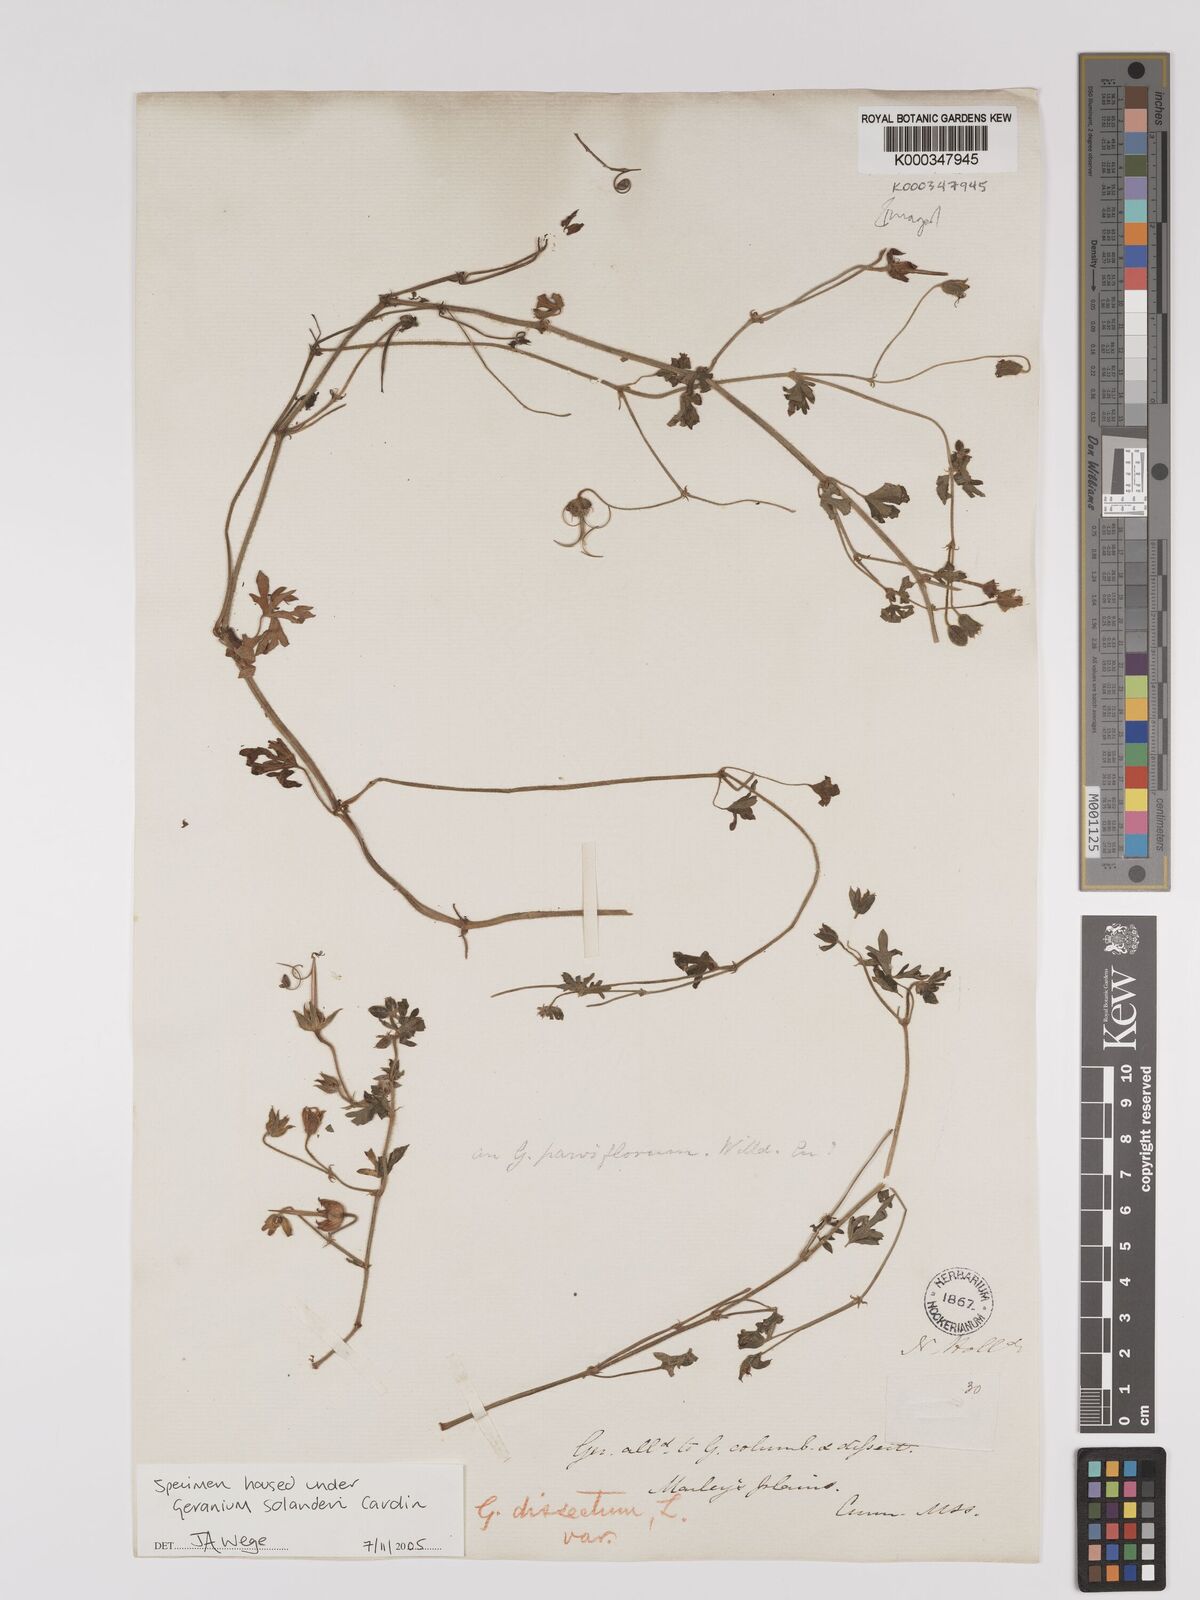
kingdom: Plantae
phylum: Tracheophyta
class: Magnoliopsida
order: Geraniales
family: Geraniaceae
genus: Geranium
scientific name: Geranium solanderi
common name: Solander's geranium
